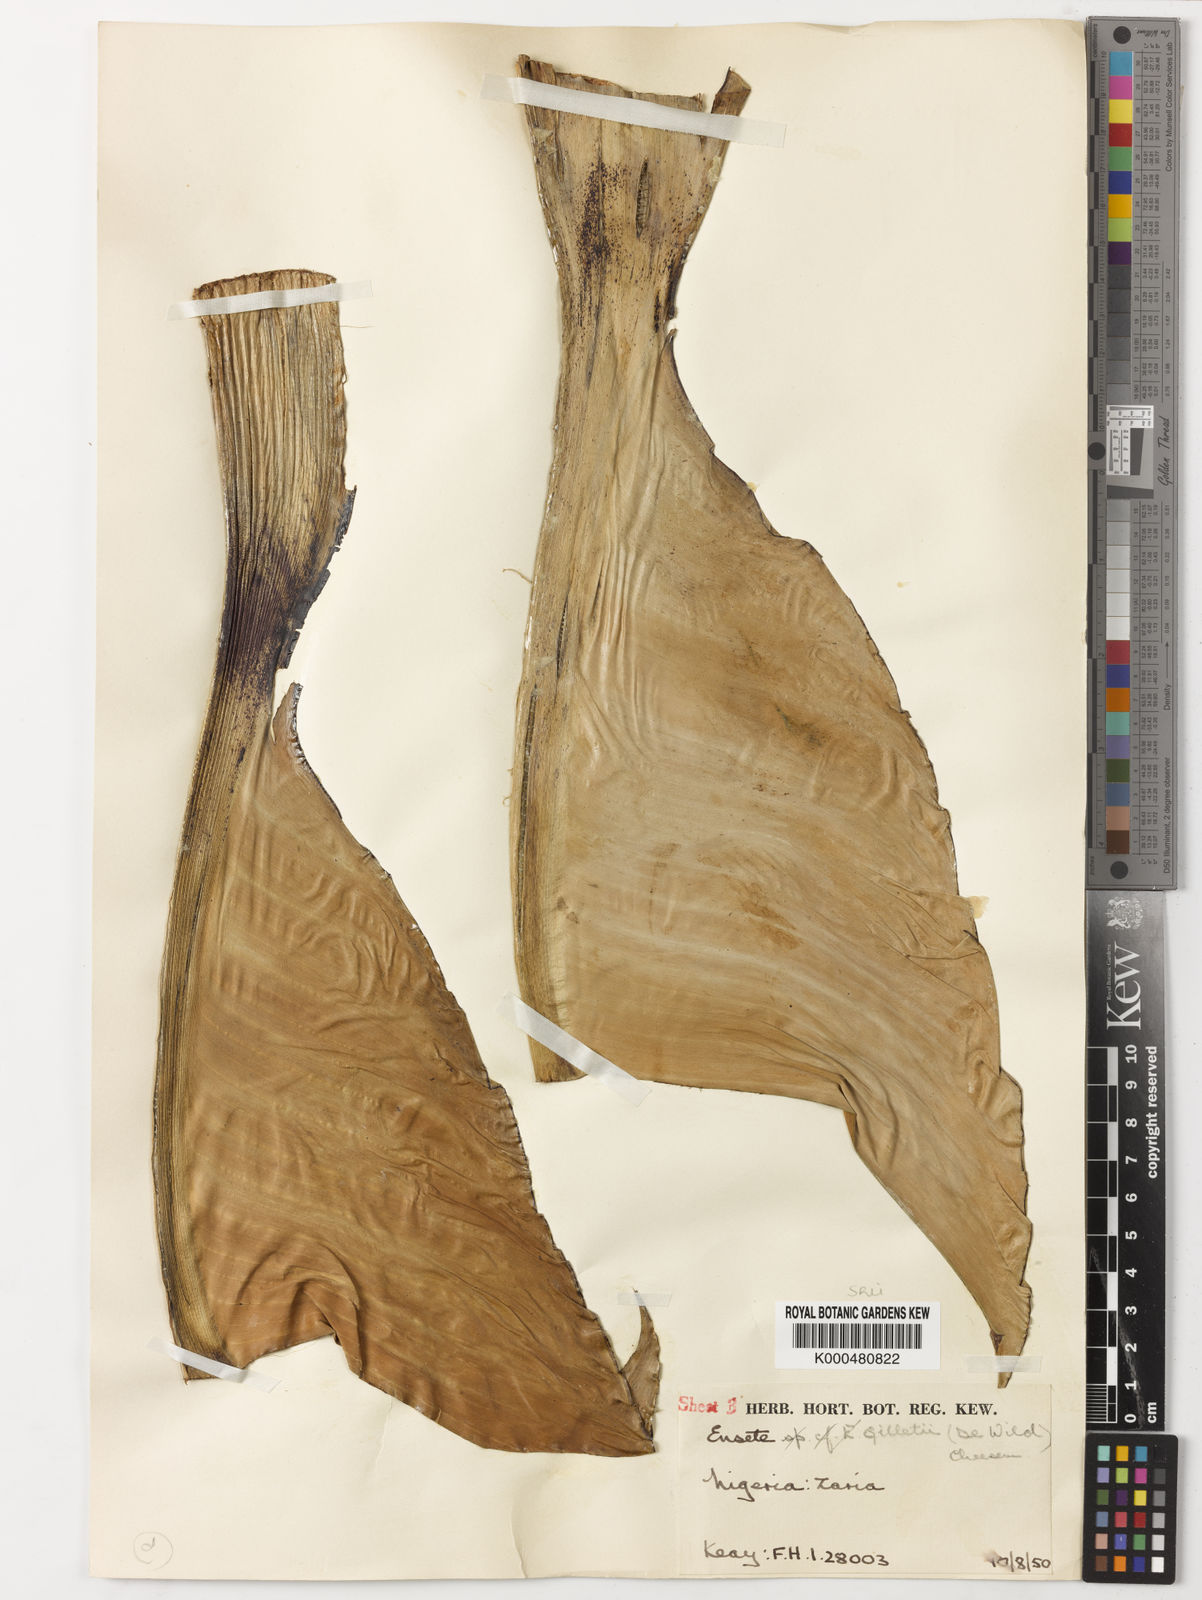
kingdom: Plantae
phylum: Tracheophyta
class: Liliopsida
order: Zingiberales
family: Musaceae
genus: Ensete
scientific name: Ensete livingstonianum
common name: Livingston's banana
